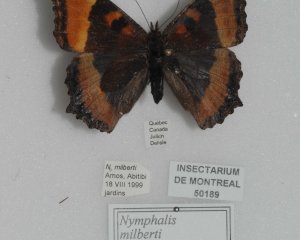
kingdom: Animalia
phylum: Arthropoda
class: Insecta
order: Lepidoptera
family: Nymphalidae
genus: Aglais
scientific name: Aglais milberti
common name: Milbert's Tortoiseshell
